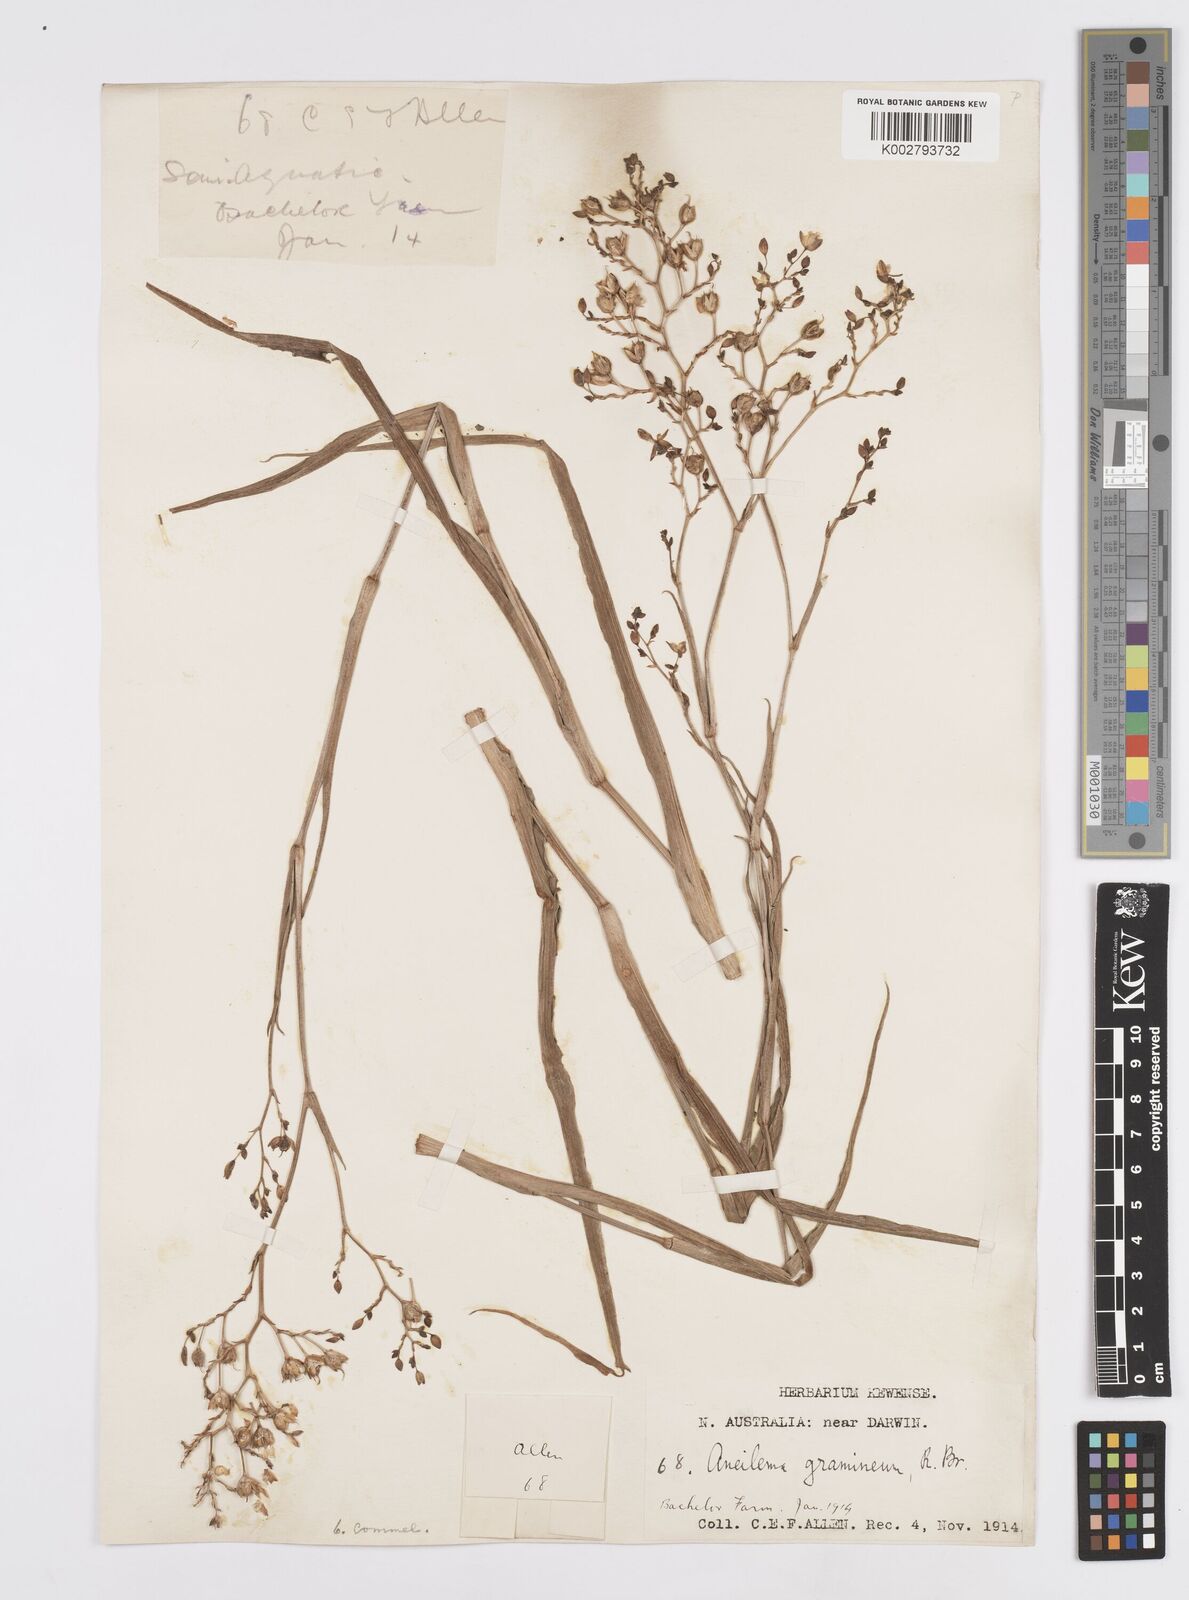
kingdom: Plantae
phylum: Tracheophyta
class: Liliopsida
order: Commelinales
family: Commelinaceae
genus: Murdannia
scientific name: Murdannia graminea
